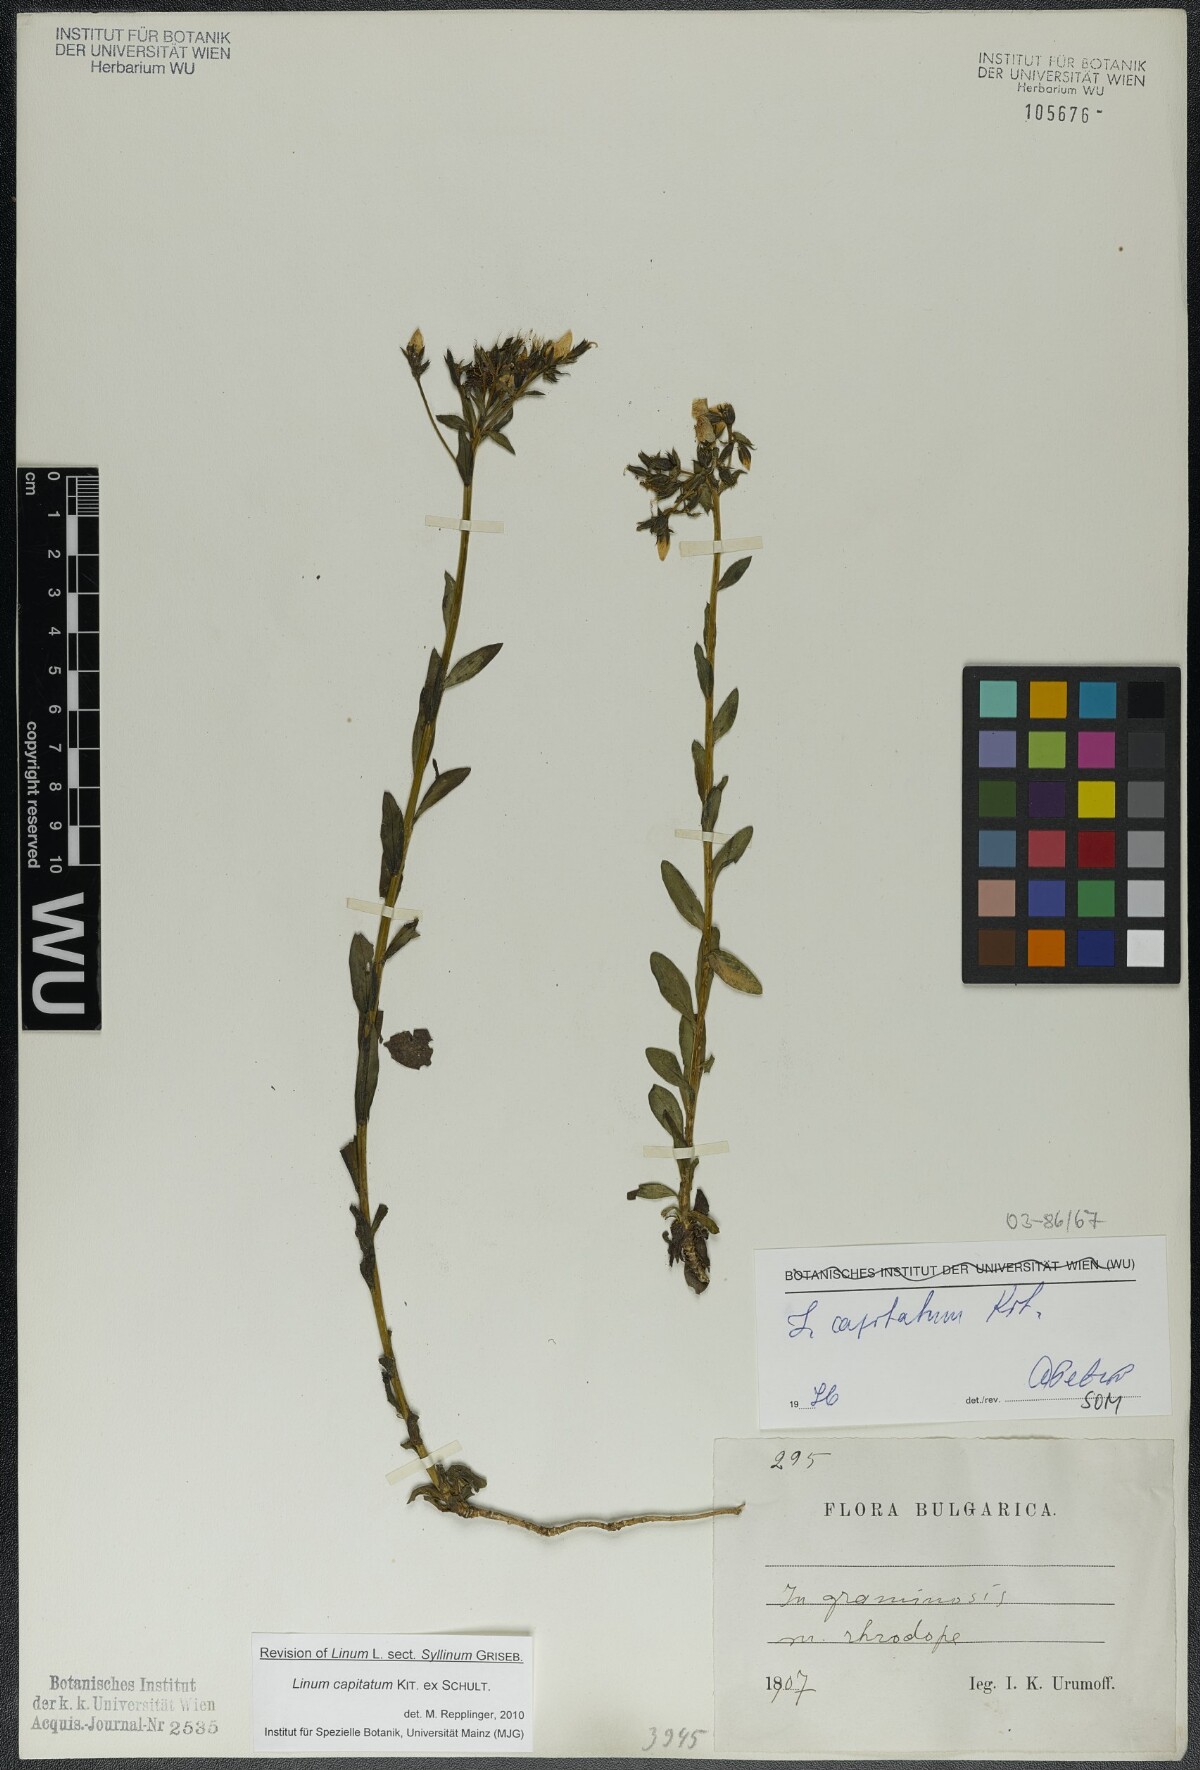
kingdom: Plantae
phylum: Tracheophyta
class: Magnoliopsida
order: Malpighiales
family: Linaceae
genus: Linum
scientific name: Linum capitatum
